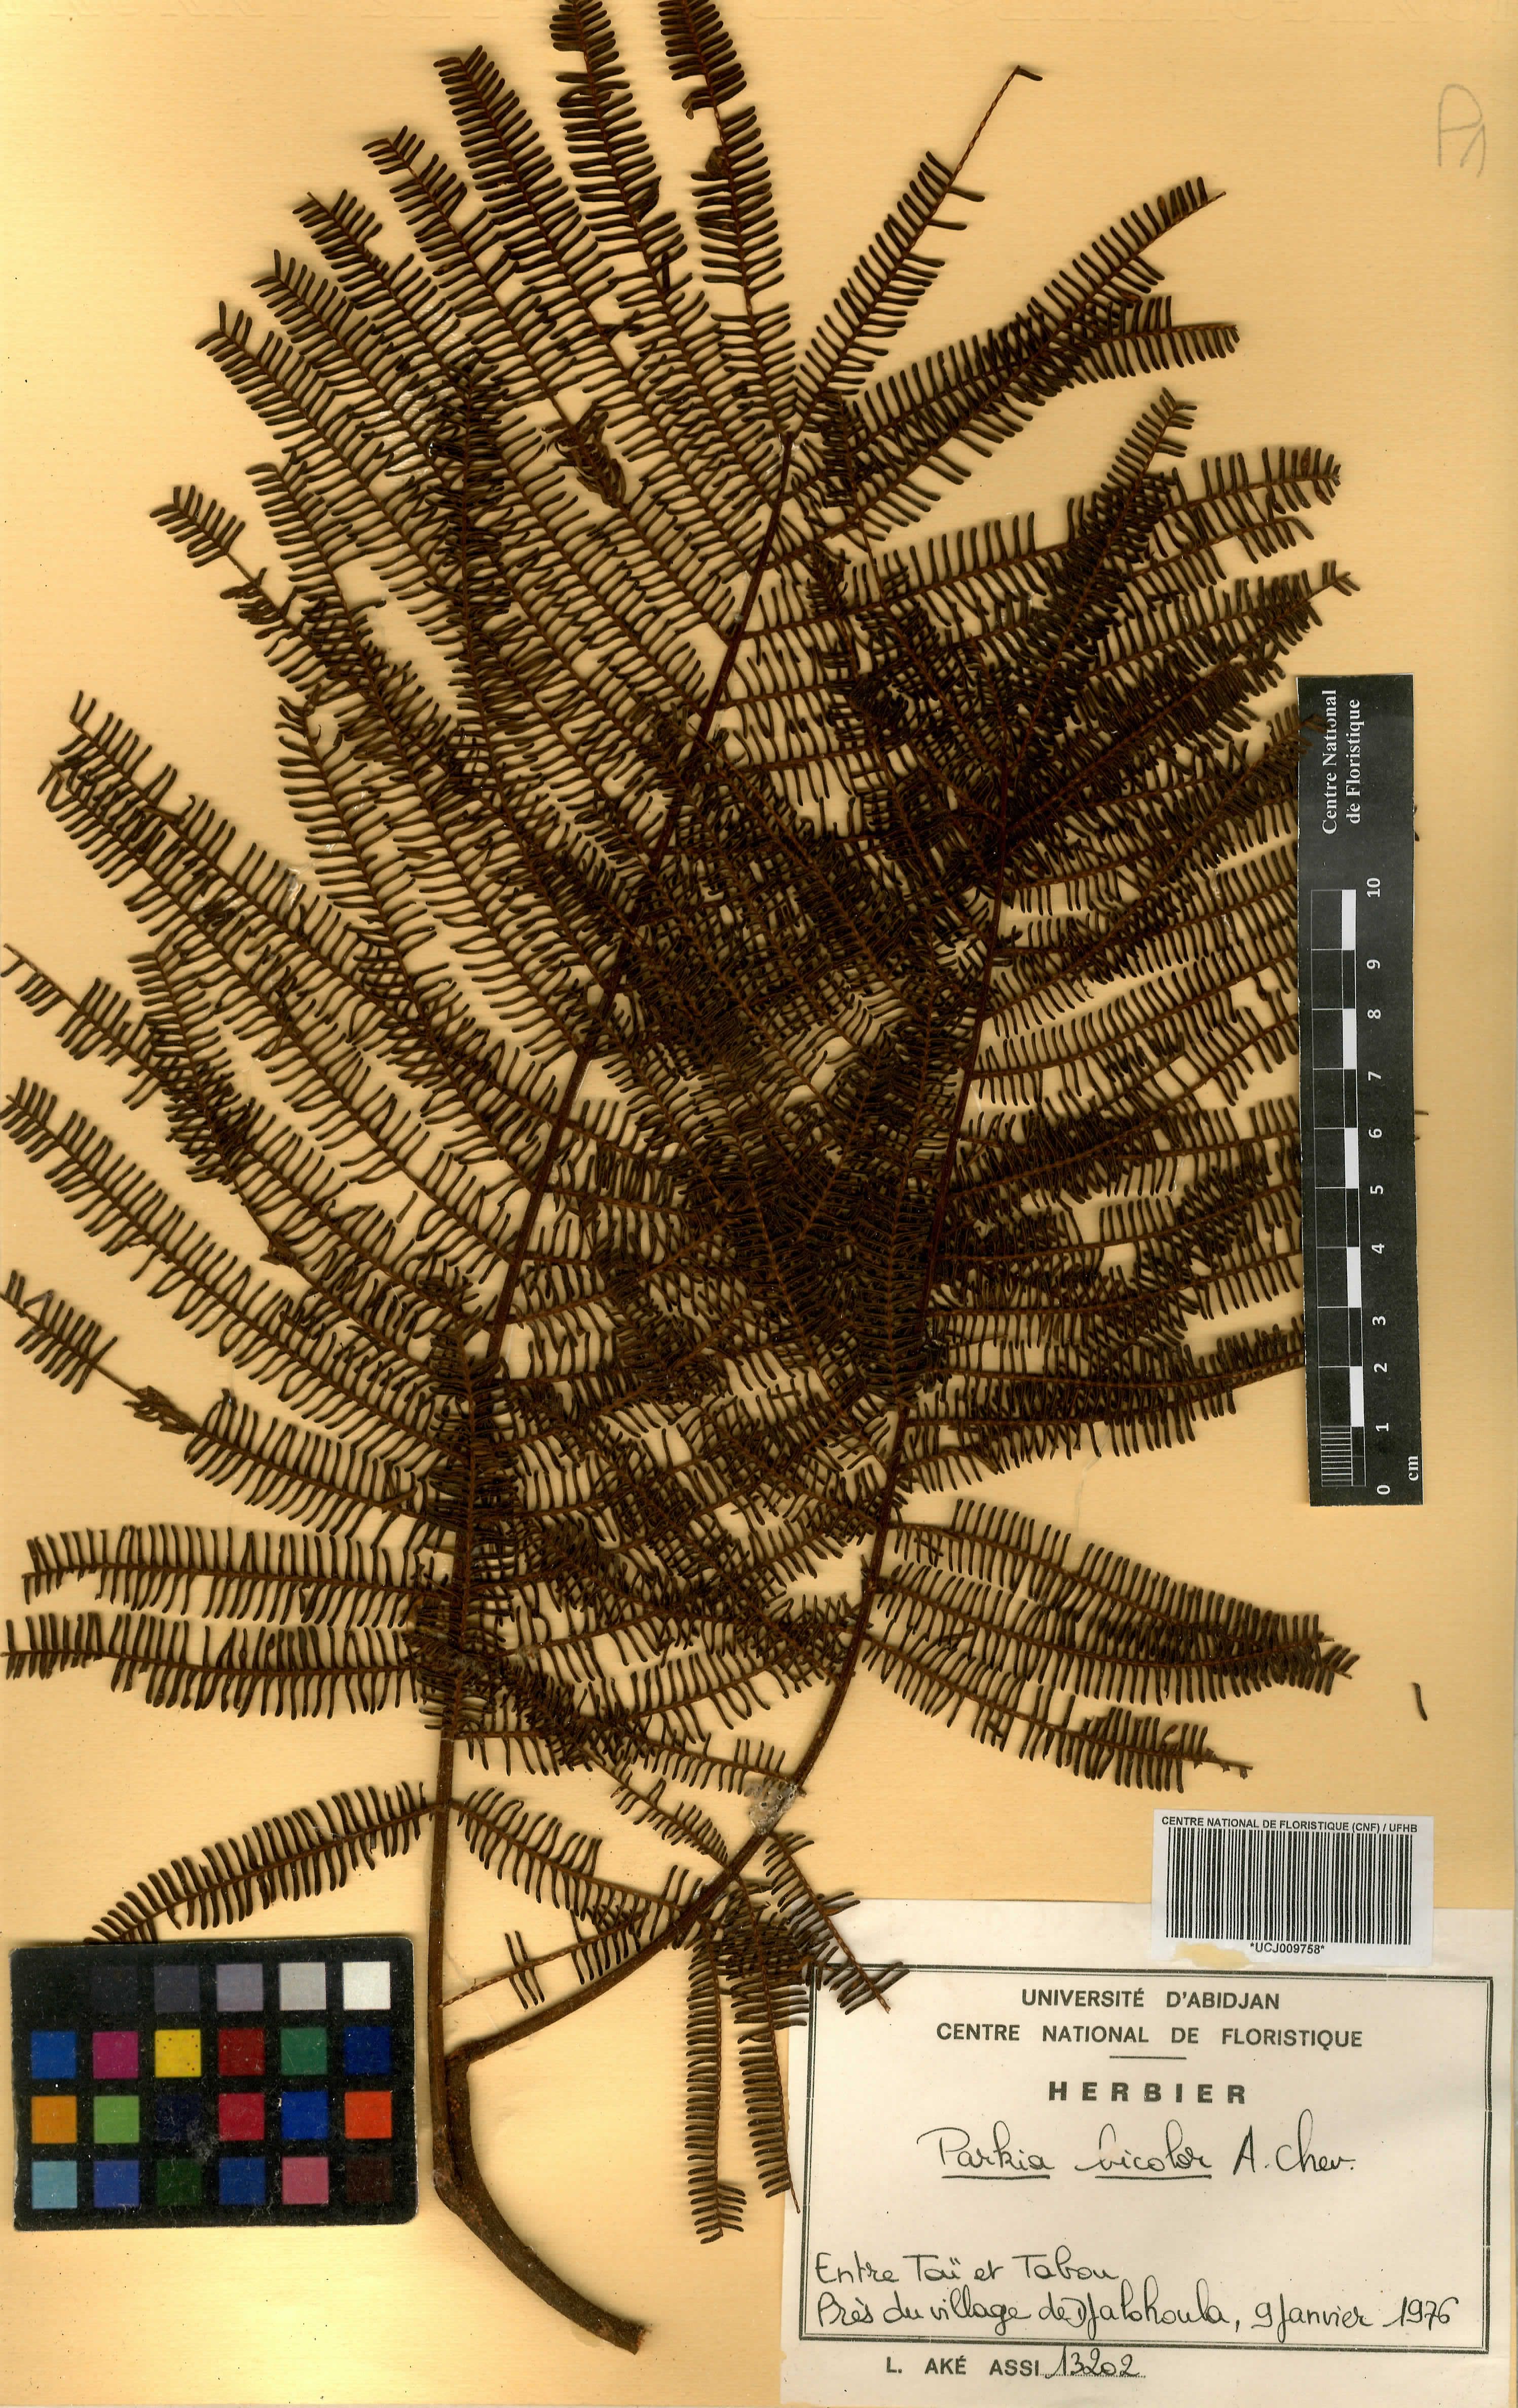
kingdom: Plantae
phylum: Tracheophyta
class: Magnoliopsida
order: Fabales
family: Fabaceae
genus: Parkia
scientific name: Parkia bicolor
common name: African locust-bean
